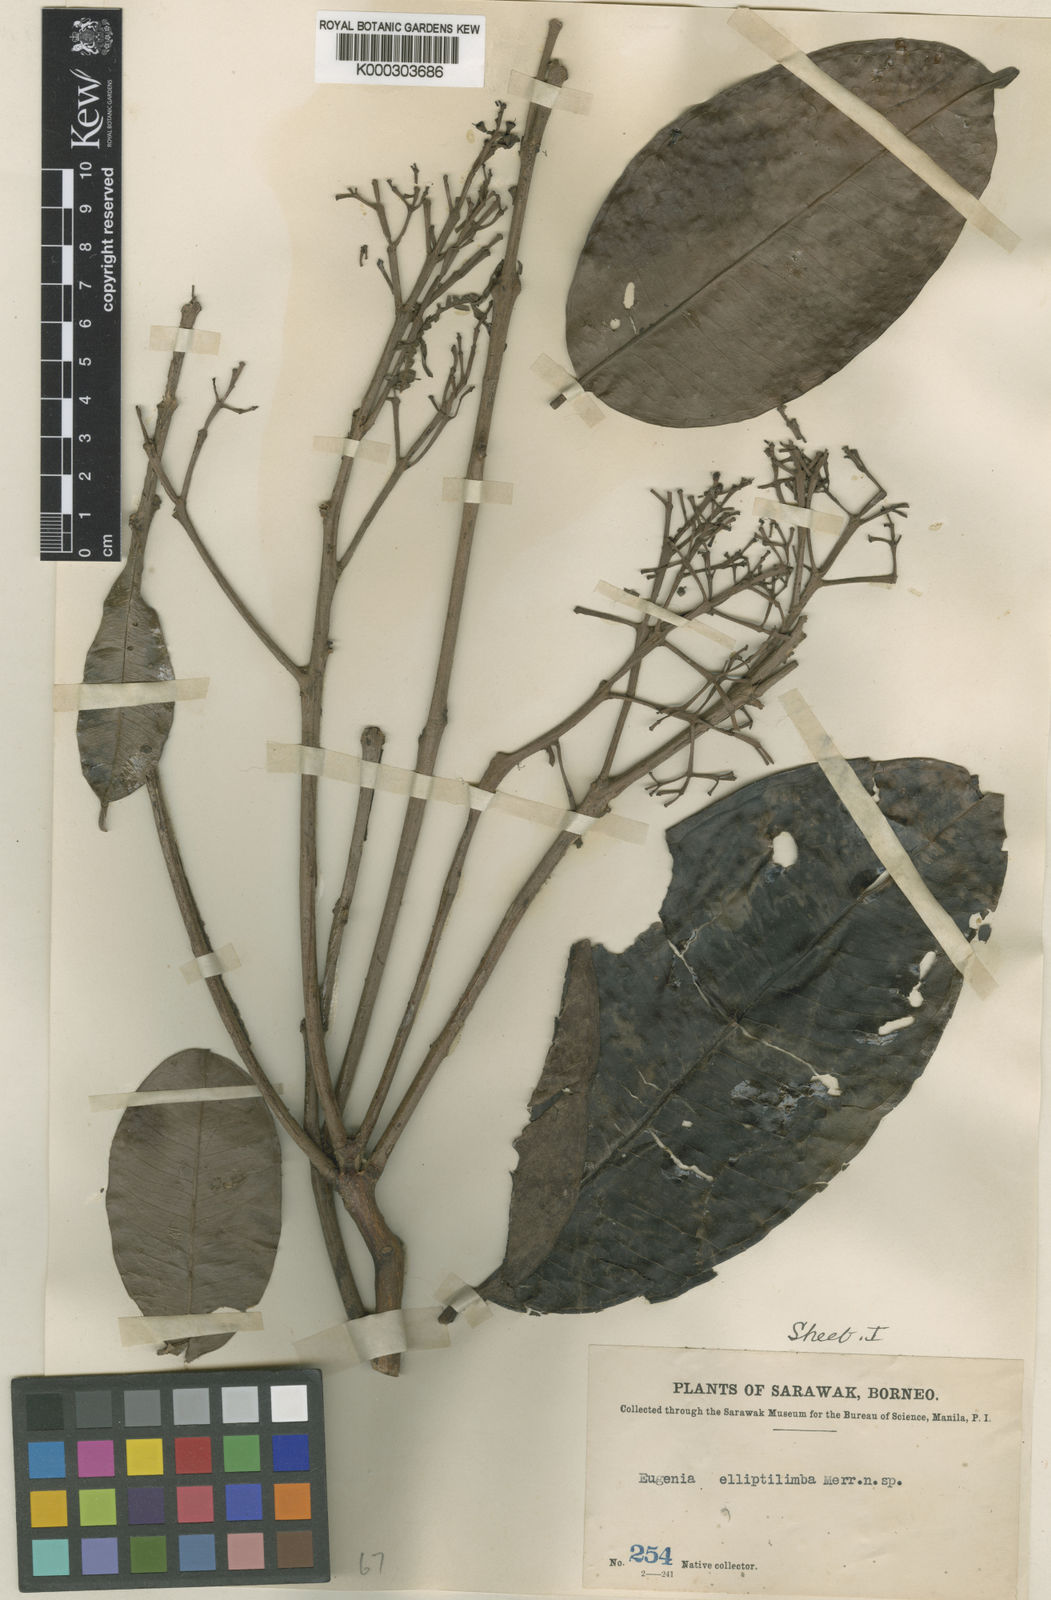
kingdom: Plantae
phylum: Tracheophyta
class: Magnoliopsida
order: Myrtales
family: Myrtaceae
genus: Syzygium
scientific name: Syzygium elliptilimbum
